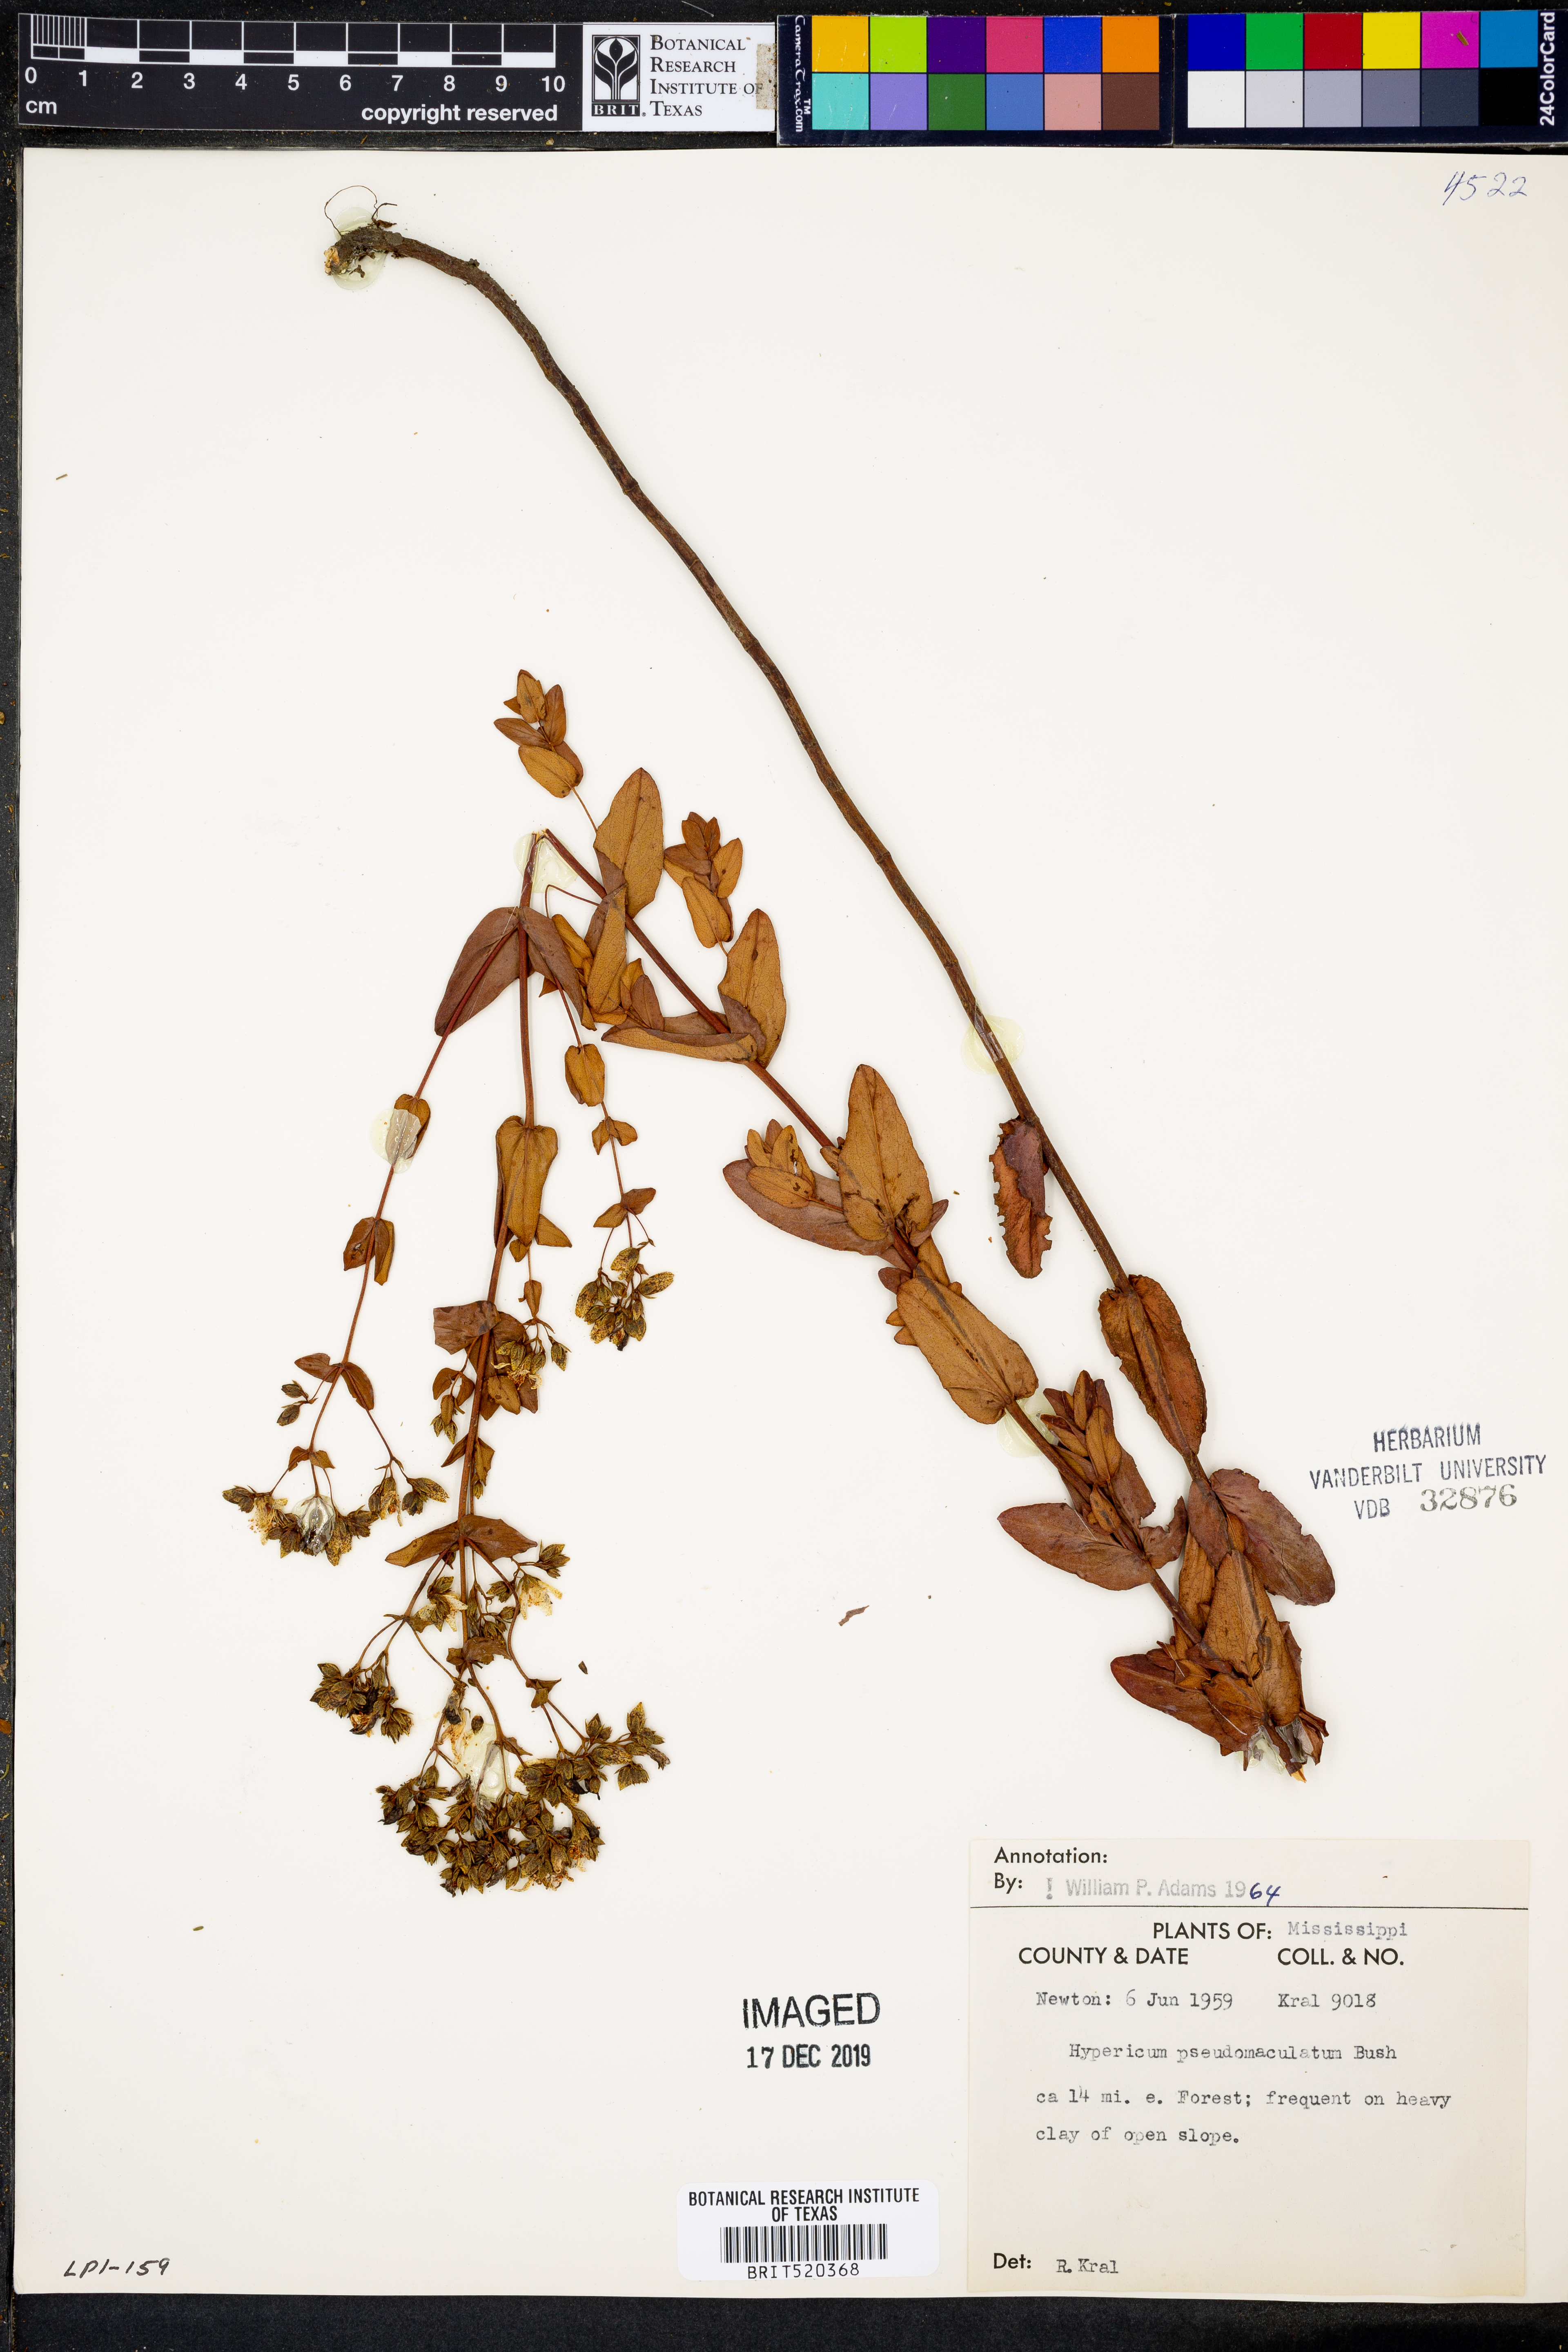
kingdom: Plantae
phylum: Tracheophyta
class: Magnoliopsida
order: Malpighiales
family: Hypericaceae
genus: Hypericum
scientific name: Hypericum pseudomaculatum
